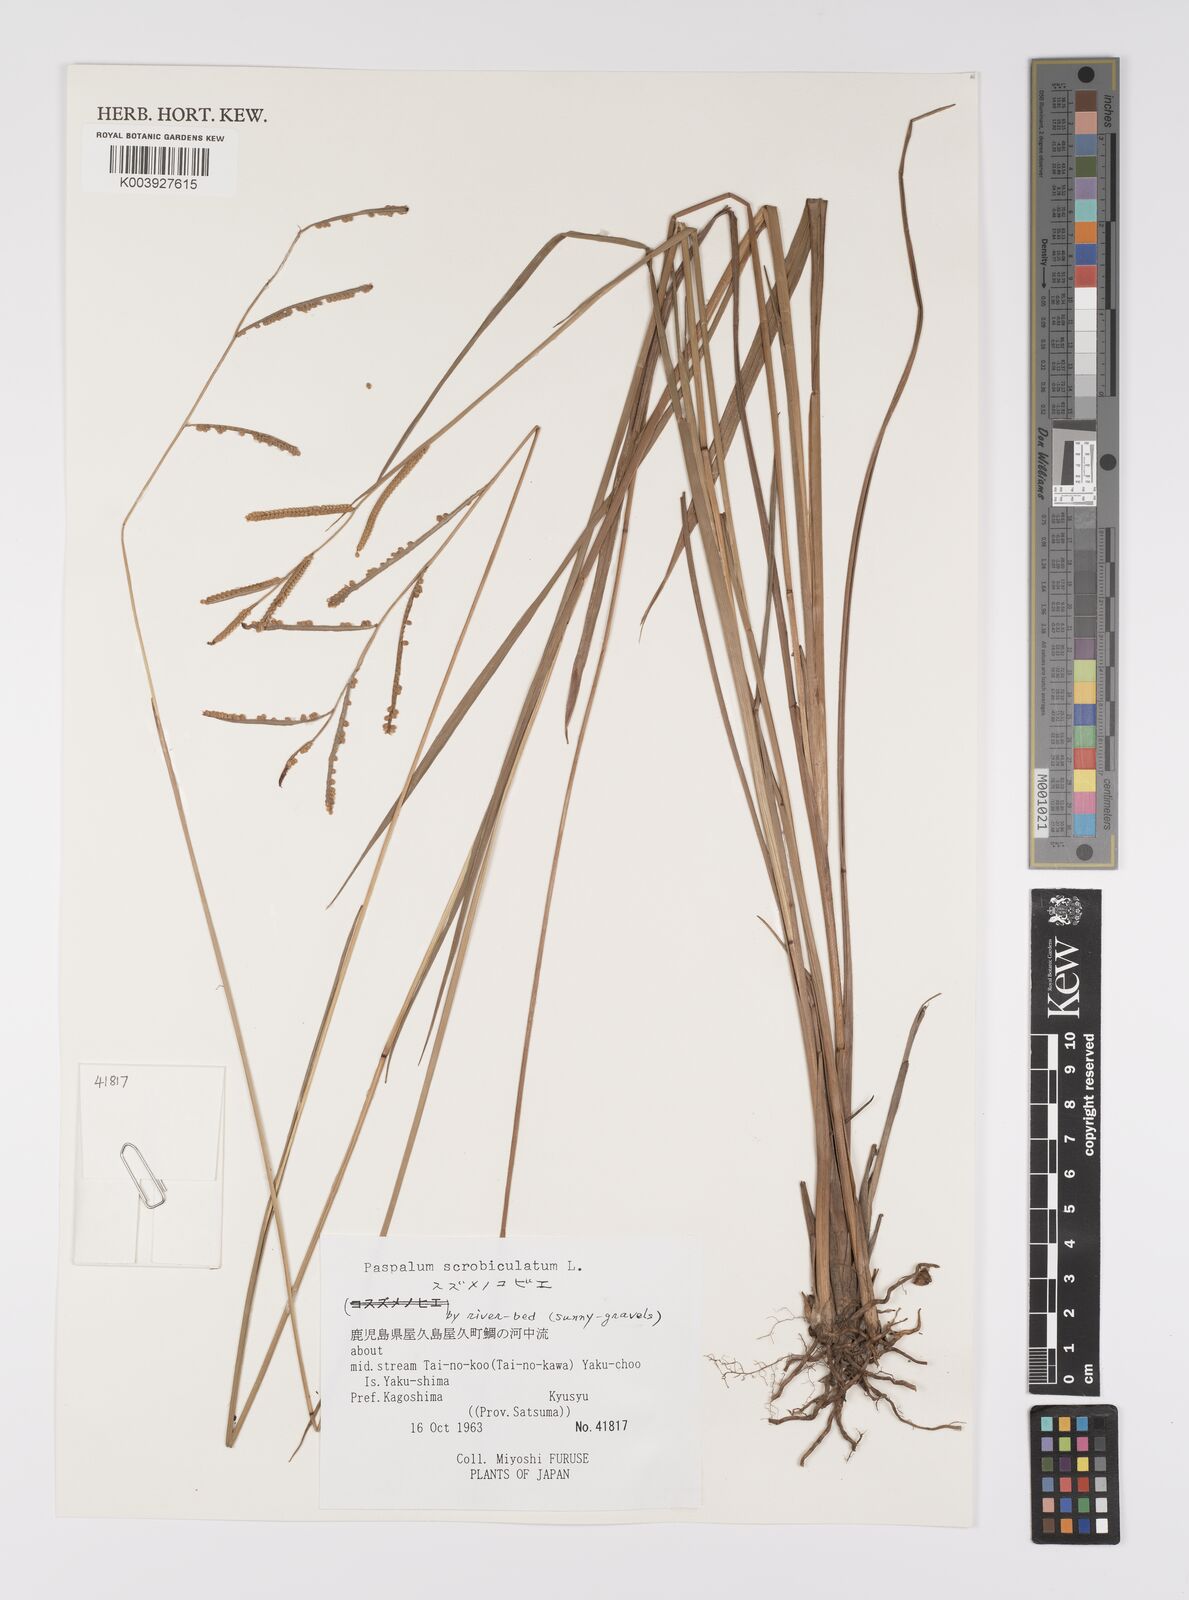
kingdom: Plantae
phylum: Tracheophyta
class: Liliopsida
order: Poales
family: Poaceae
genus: Paspalum
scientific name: Paspalum scrobiculatum
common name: Kodo millet
